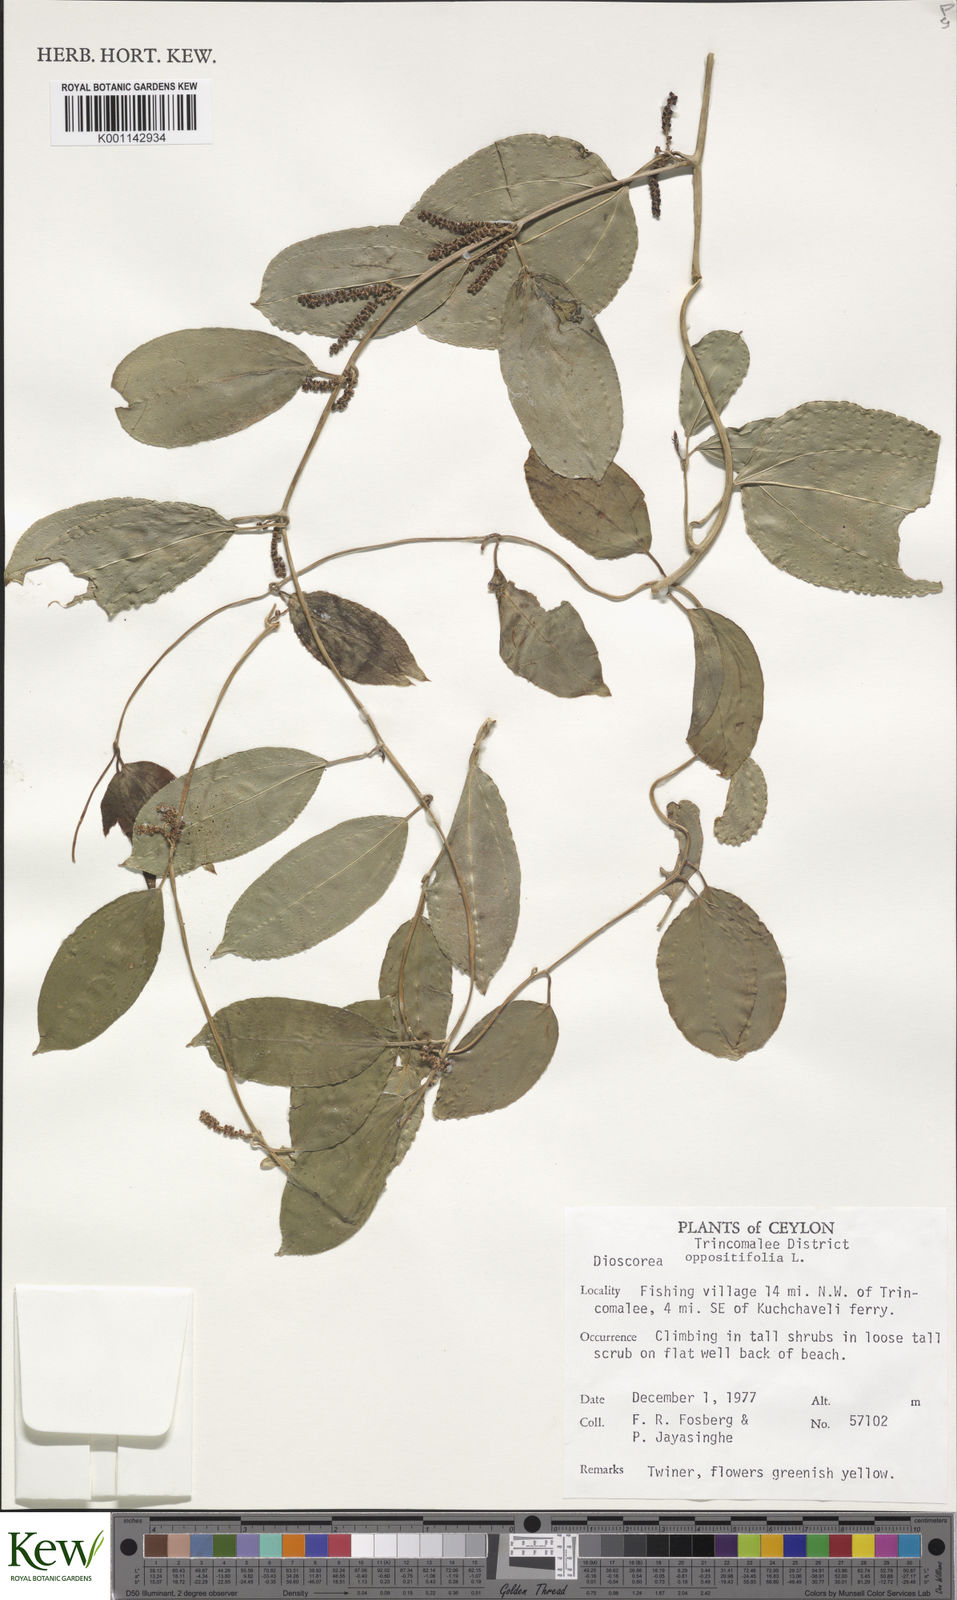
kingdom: Plantae
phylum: Tracheophyta
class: Liliopsida
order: Dioscoreales
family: Dioscoreaceae
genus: Dioscorea
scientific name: Dioscorea oppositifolia
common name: Chinese yam
